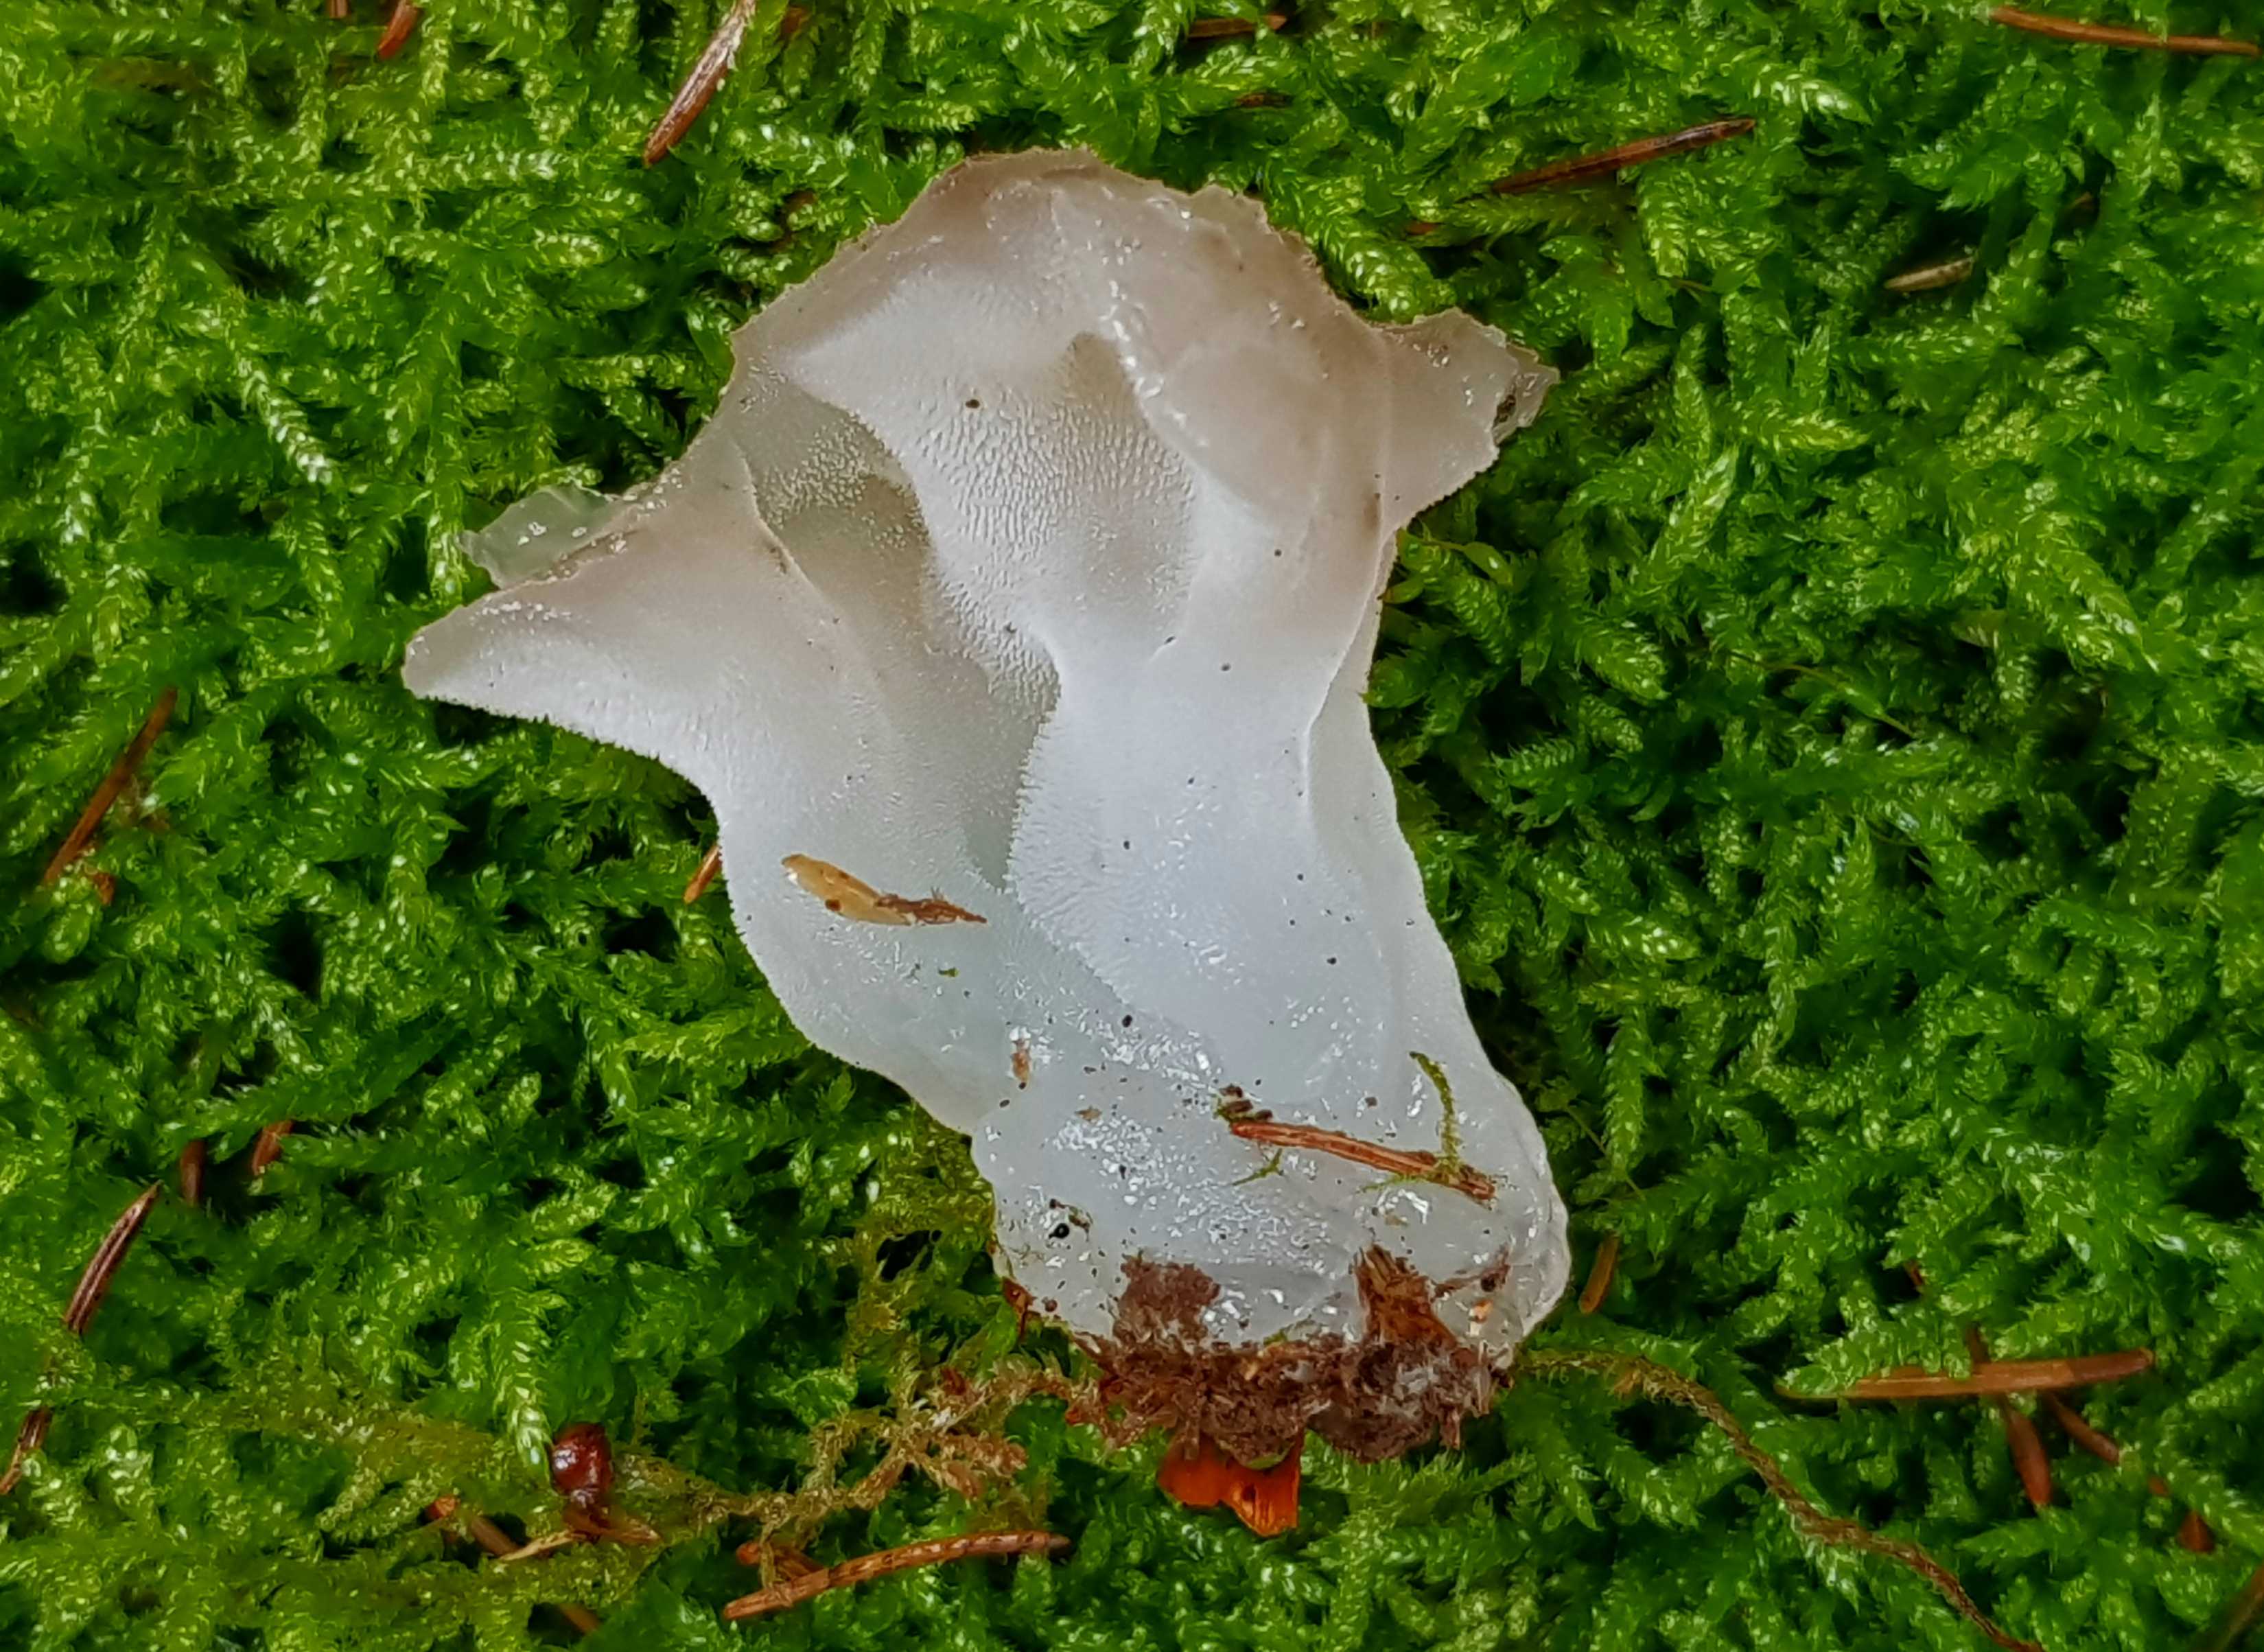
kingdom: Fungi
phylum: Basidiomycota
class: Agaricomycetes
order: Auriculariales
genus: Pseudohydnum
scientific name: Pseudohydnum gelatinosum
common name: bævretand
